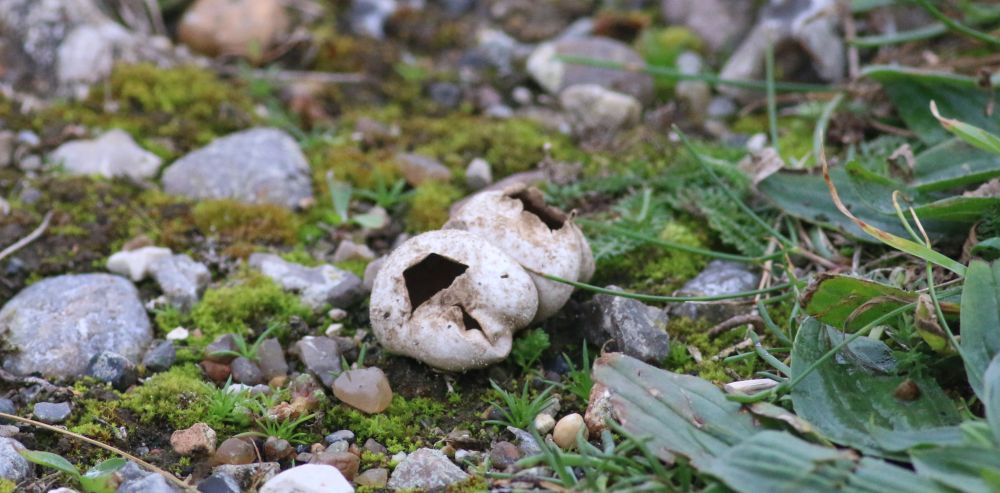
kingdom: Fungi
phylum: Basidiomycota
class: Agaricomycetes
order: Agaricales
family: Lycoperdaceae
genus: Lycoperdon
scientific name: Lycoperdon pratense
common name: flad støvbold
